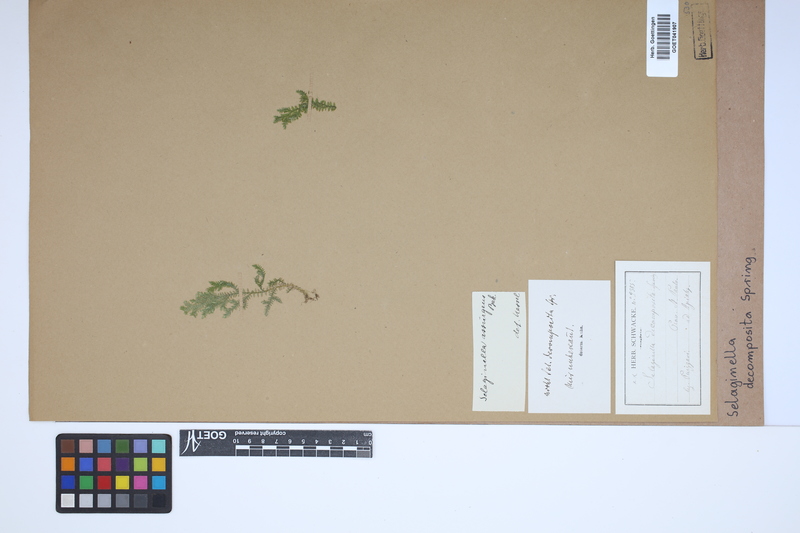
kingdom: Plantae
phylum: Tracheophyta
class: Lycopodiopsida
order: Selaginellales
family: Selaginellaceae
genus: Selaginella
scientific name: Selaginella decomposita
